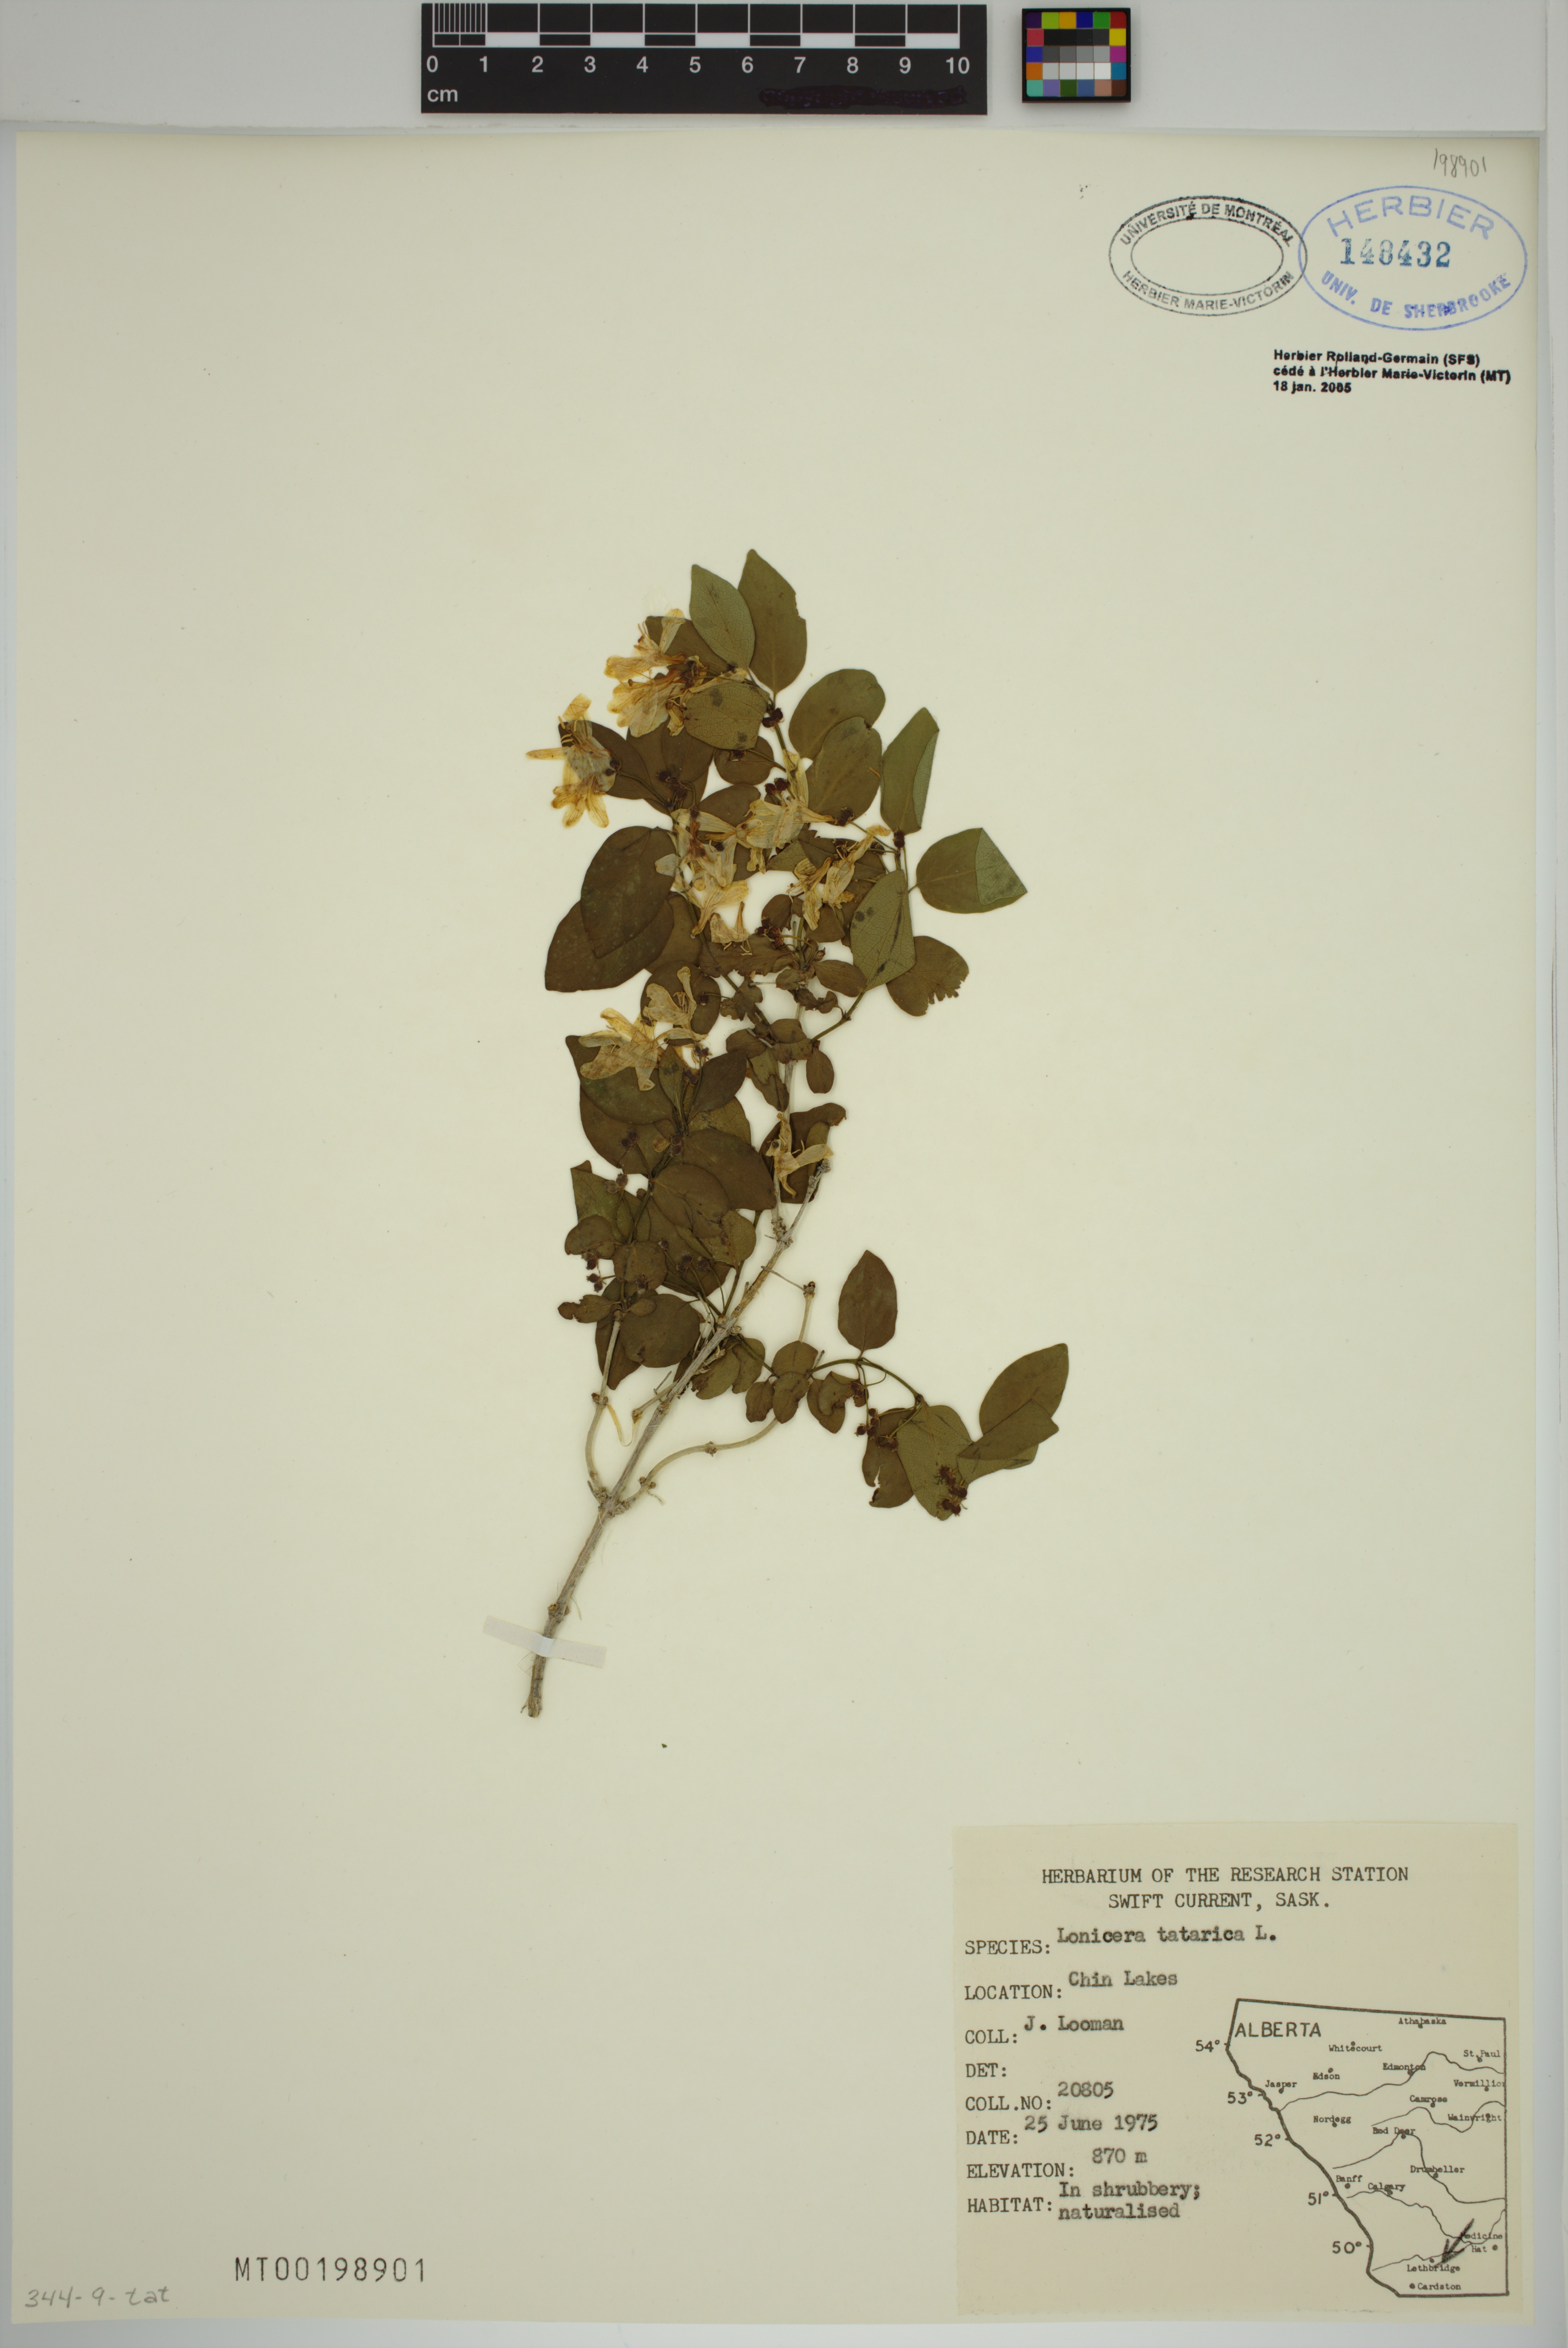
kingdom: Plantae
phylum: Tracheophyta
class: Magnoliopsida
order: Dipsacales
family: Caprifoliaceae
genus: Lonicera
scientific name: Lonicera tatarica
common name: Tatarian honeysuckle
